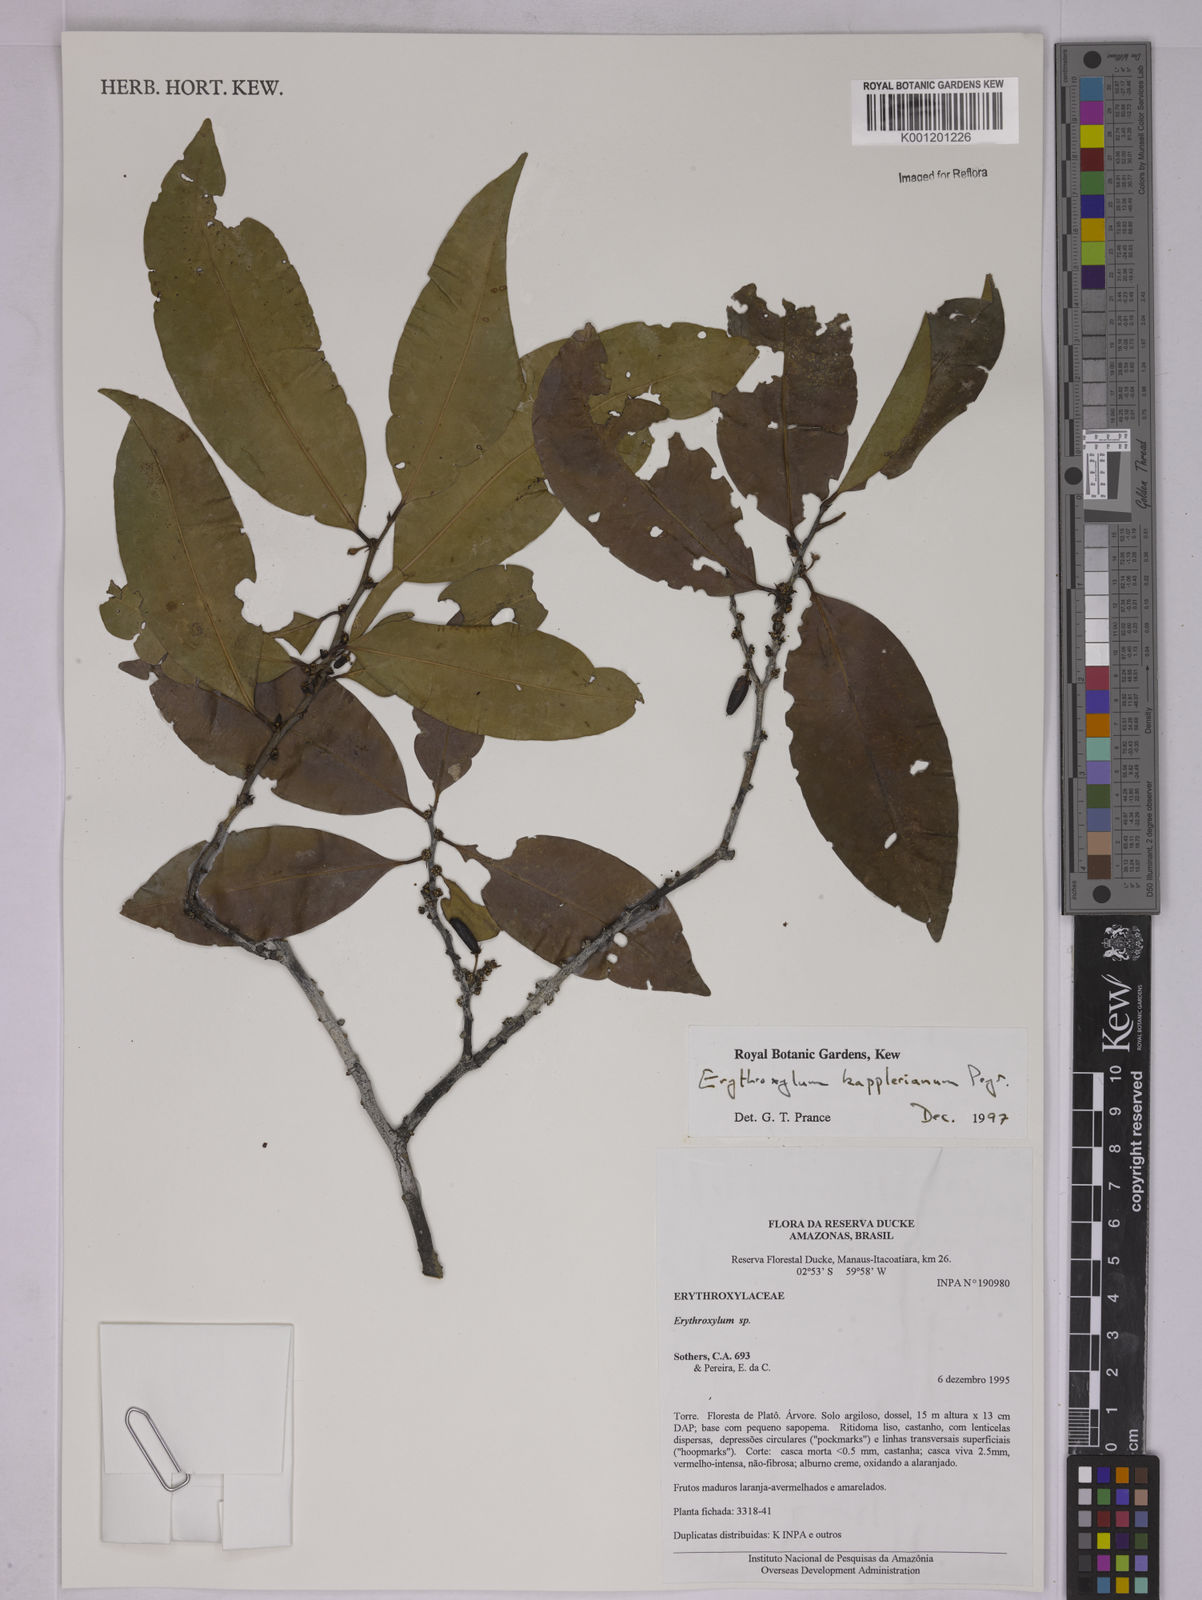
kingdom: Plantae
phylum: Tracheophyta
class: Magnoliopsida
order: Malpighiales
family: Erythroxylaceae
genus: Erythroxylum
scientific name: Erythroxylum kapplerianum
